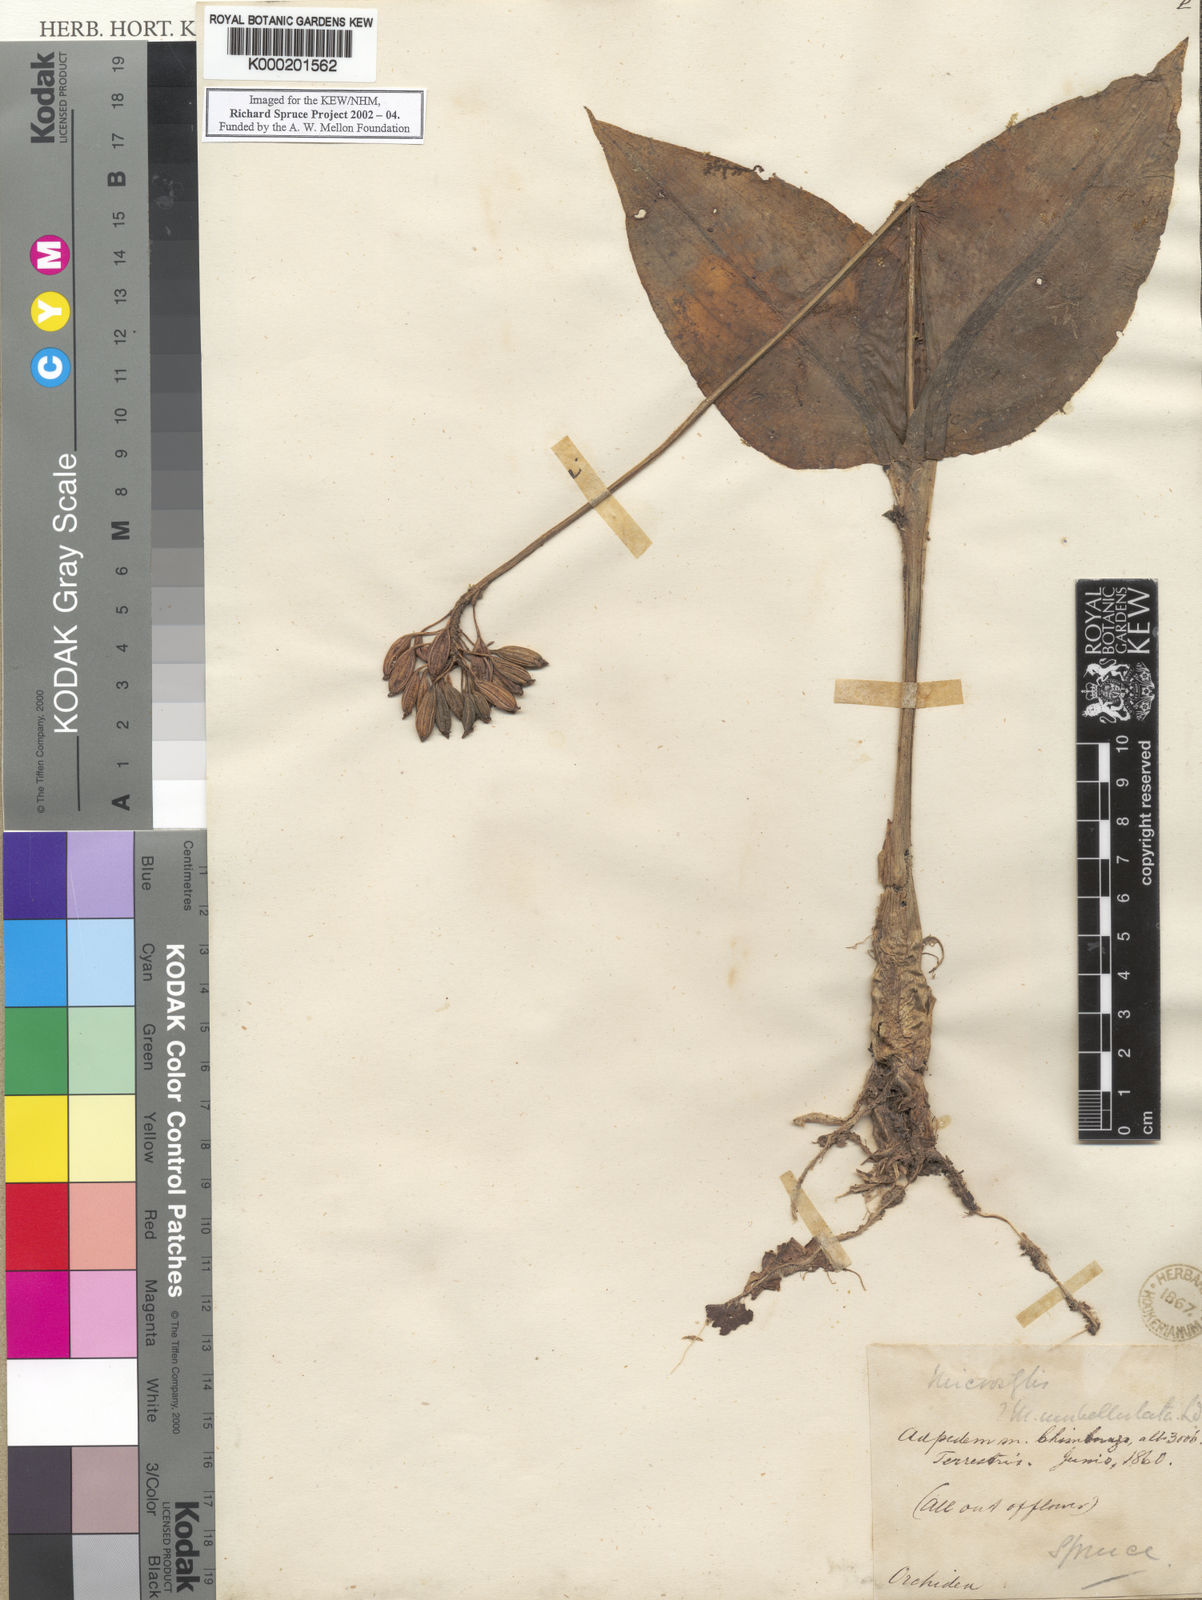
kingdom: Plantae
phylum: Tracheophyta
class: Liliopsida
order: Asparagales
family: Orchidaceae
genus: Malaxis
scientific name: Malaxis parthoni
